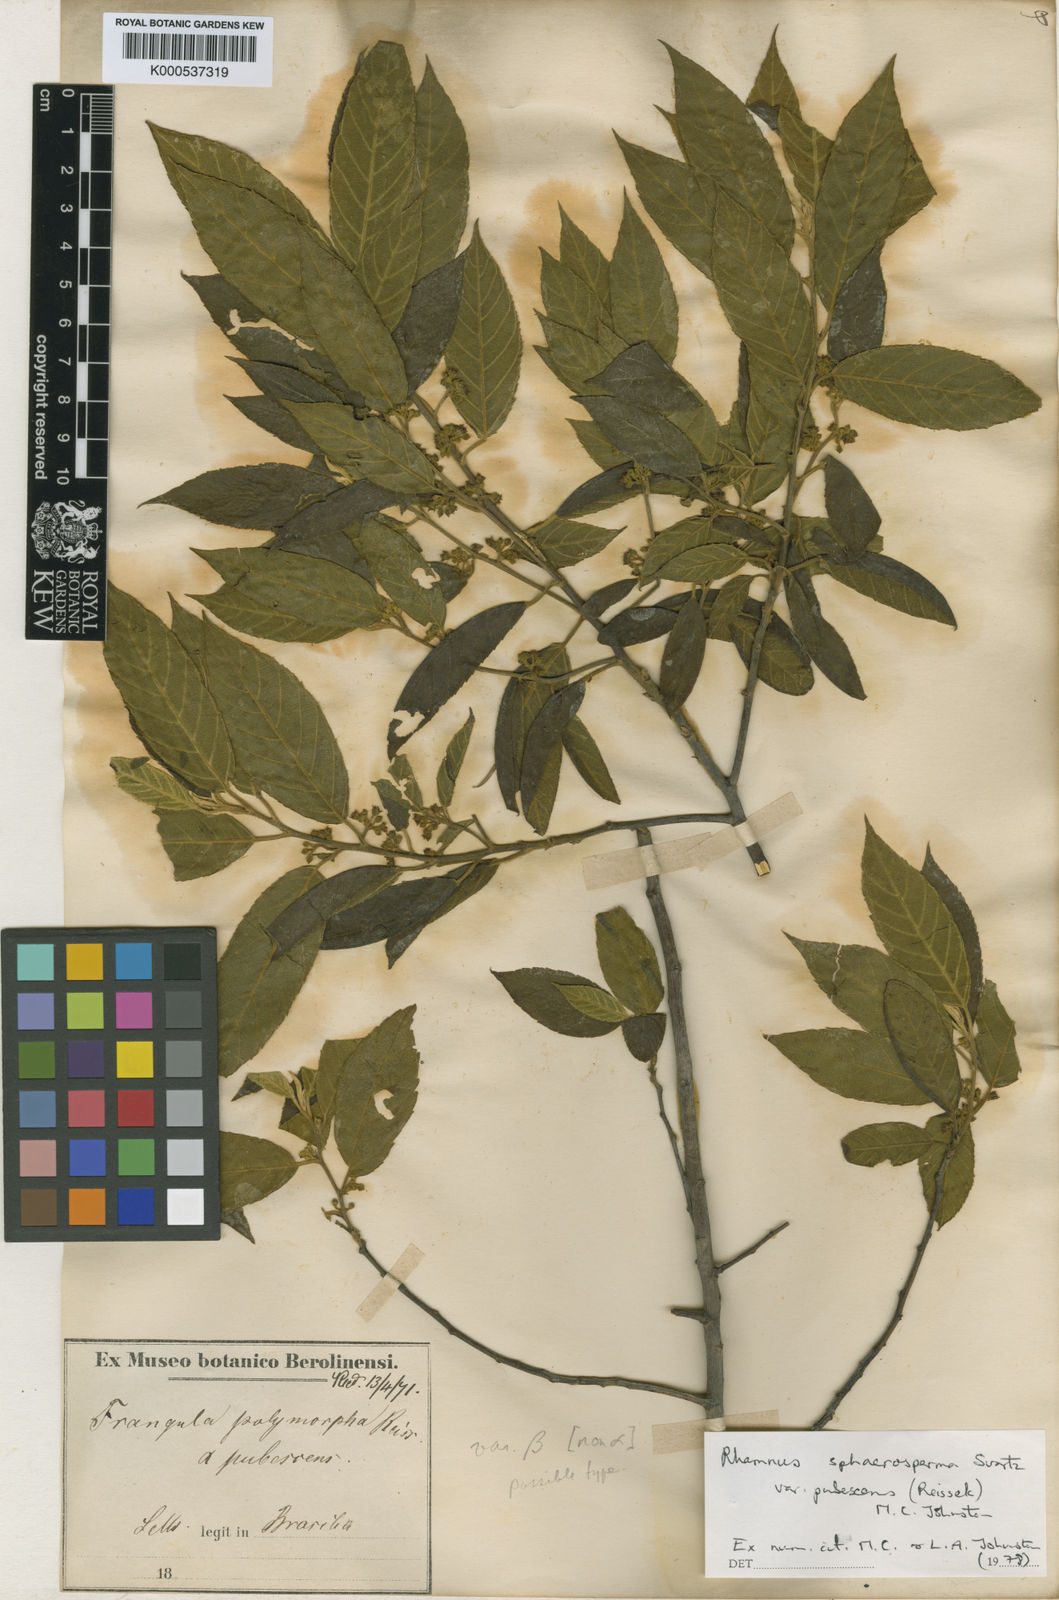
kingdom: Plantae
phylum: Tracheophyta
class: Magnoliopsida
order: Rosales
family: Rhamnaceae
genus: Frangula
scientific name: Frangula
